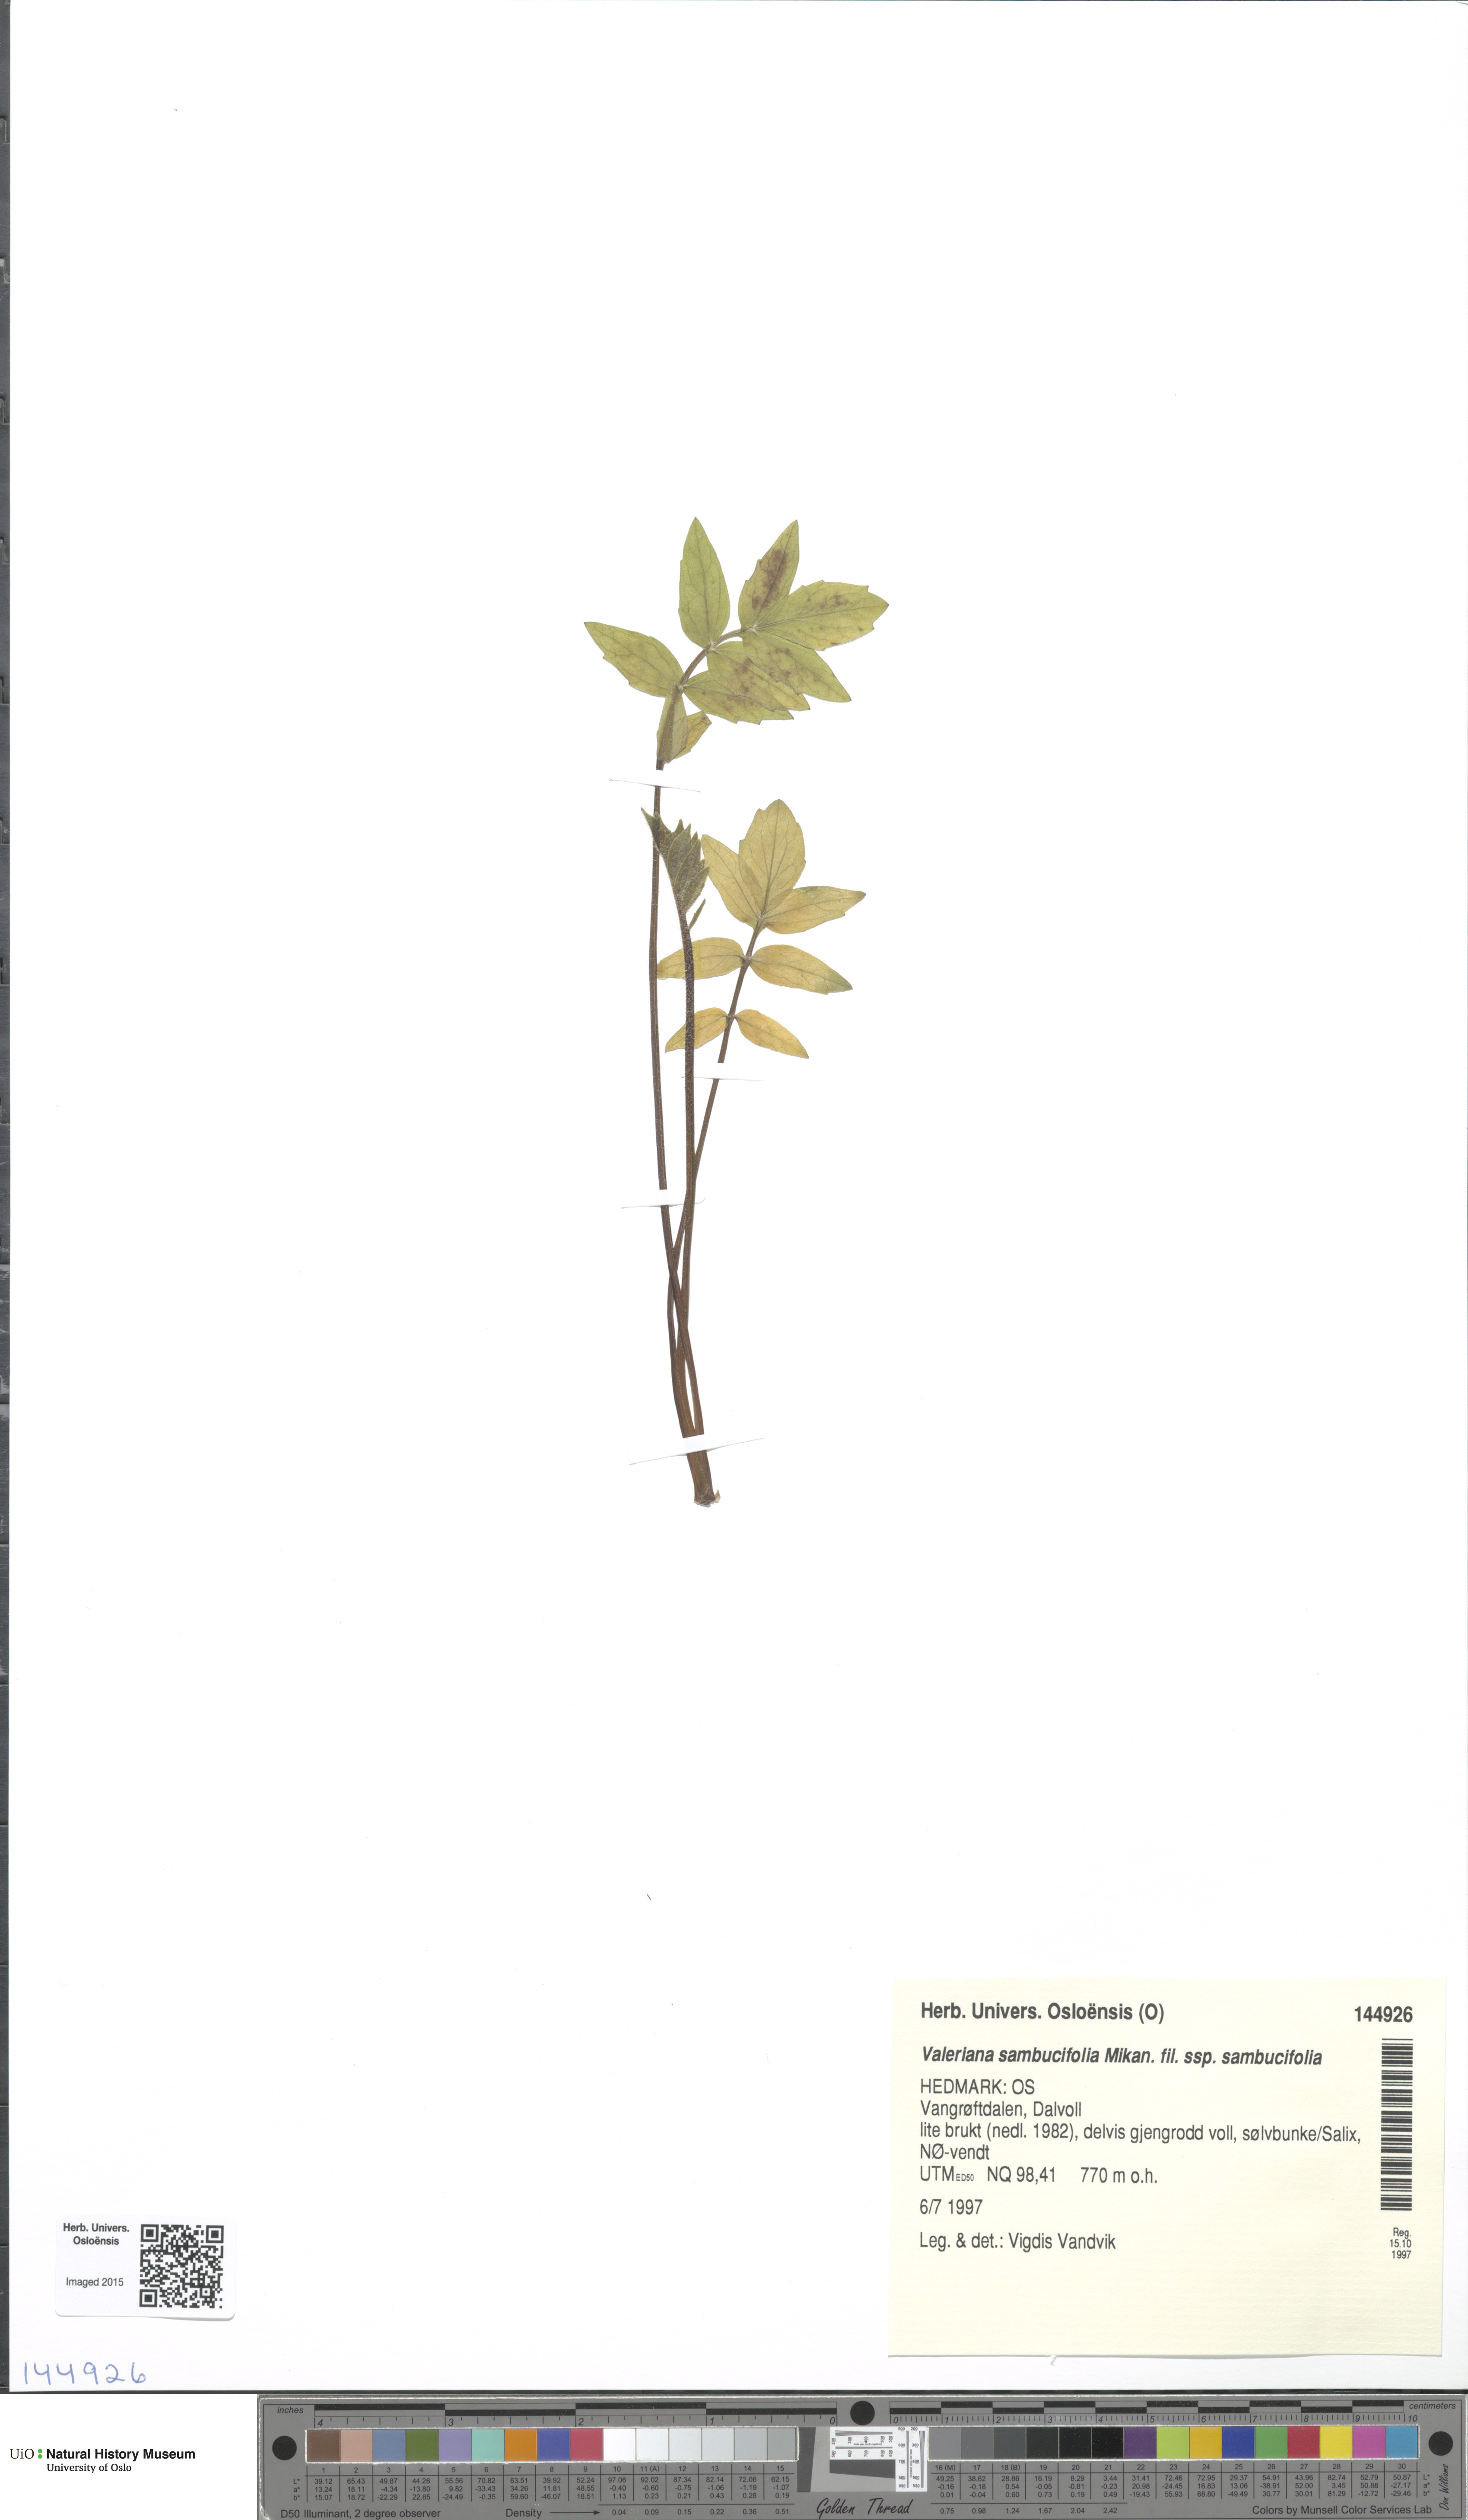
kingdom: Plantae
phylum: Tracheophyta
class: Magnoliopsida
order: Dipsacales
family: Caprifoliaceae
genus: Valeriana
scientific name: Valeriana sambucifolia
